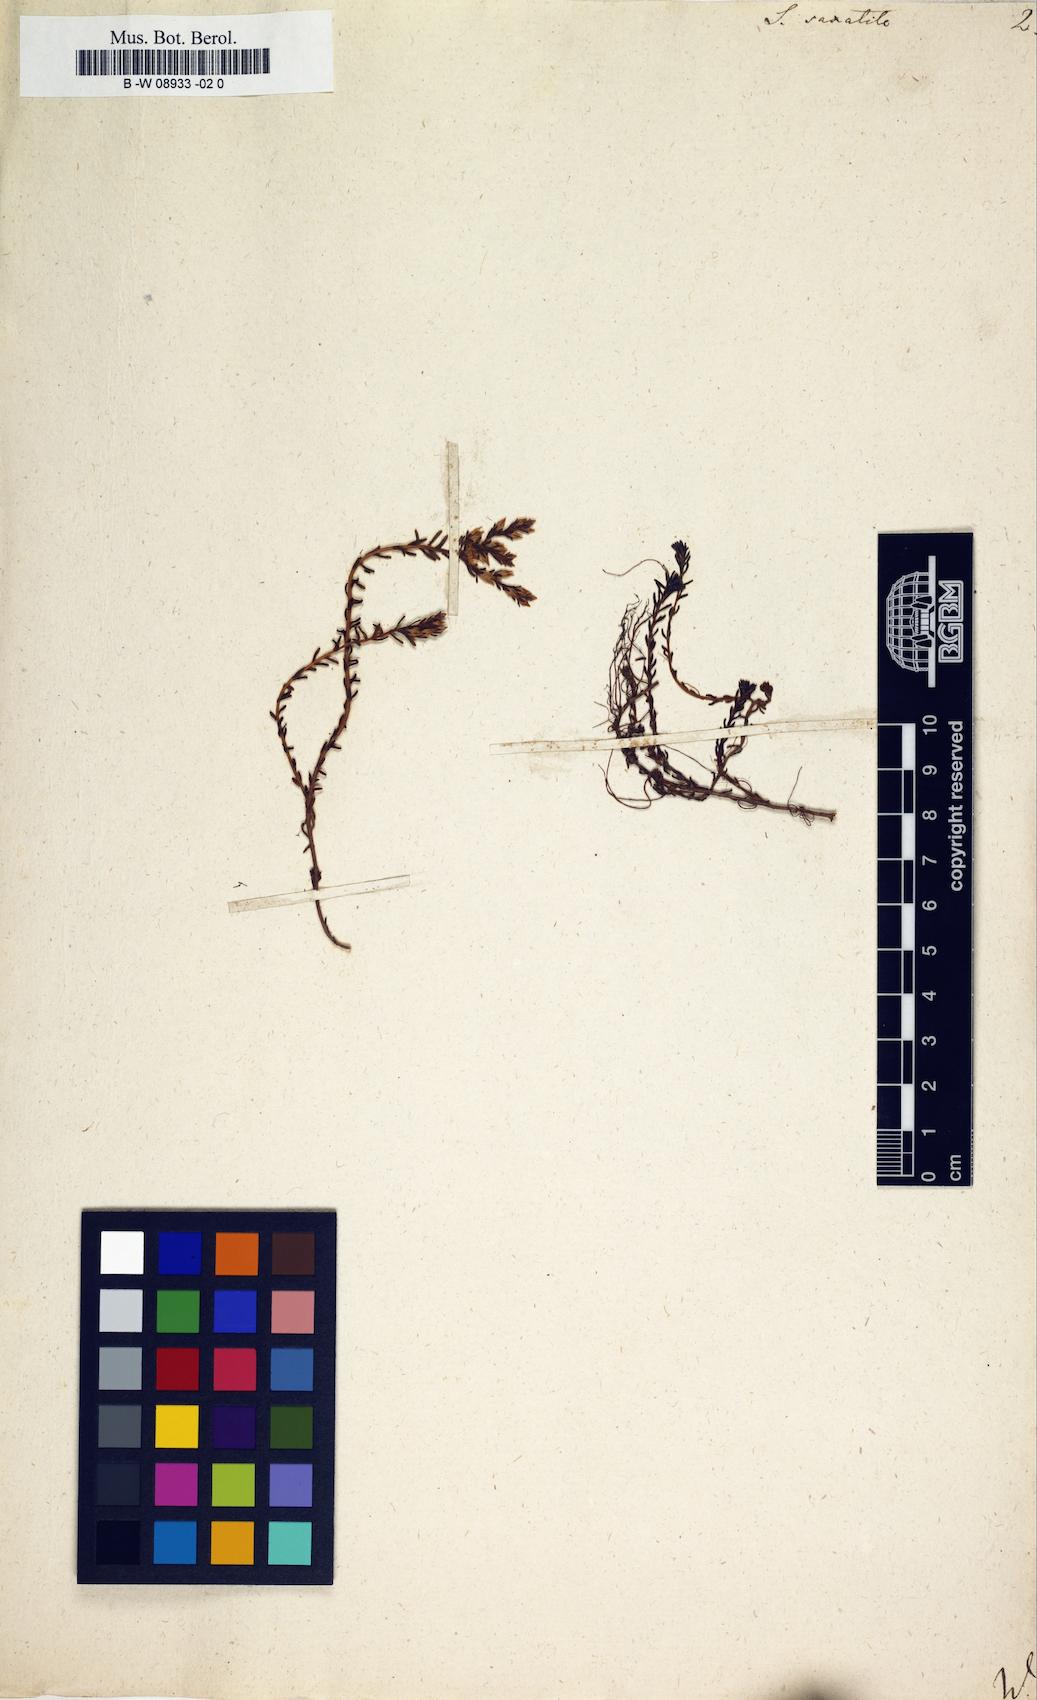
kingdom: Plantae
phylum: Tracheophyta
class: Magnoliopsida
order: Saxifragales
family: Crassulaceae
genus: Sedum
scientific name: Sedum
